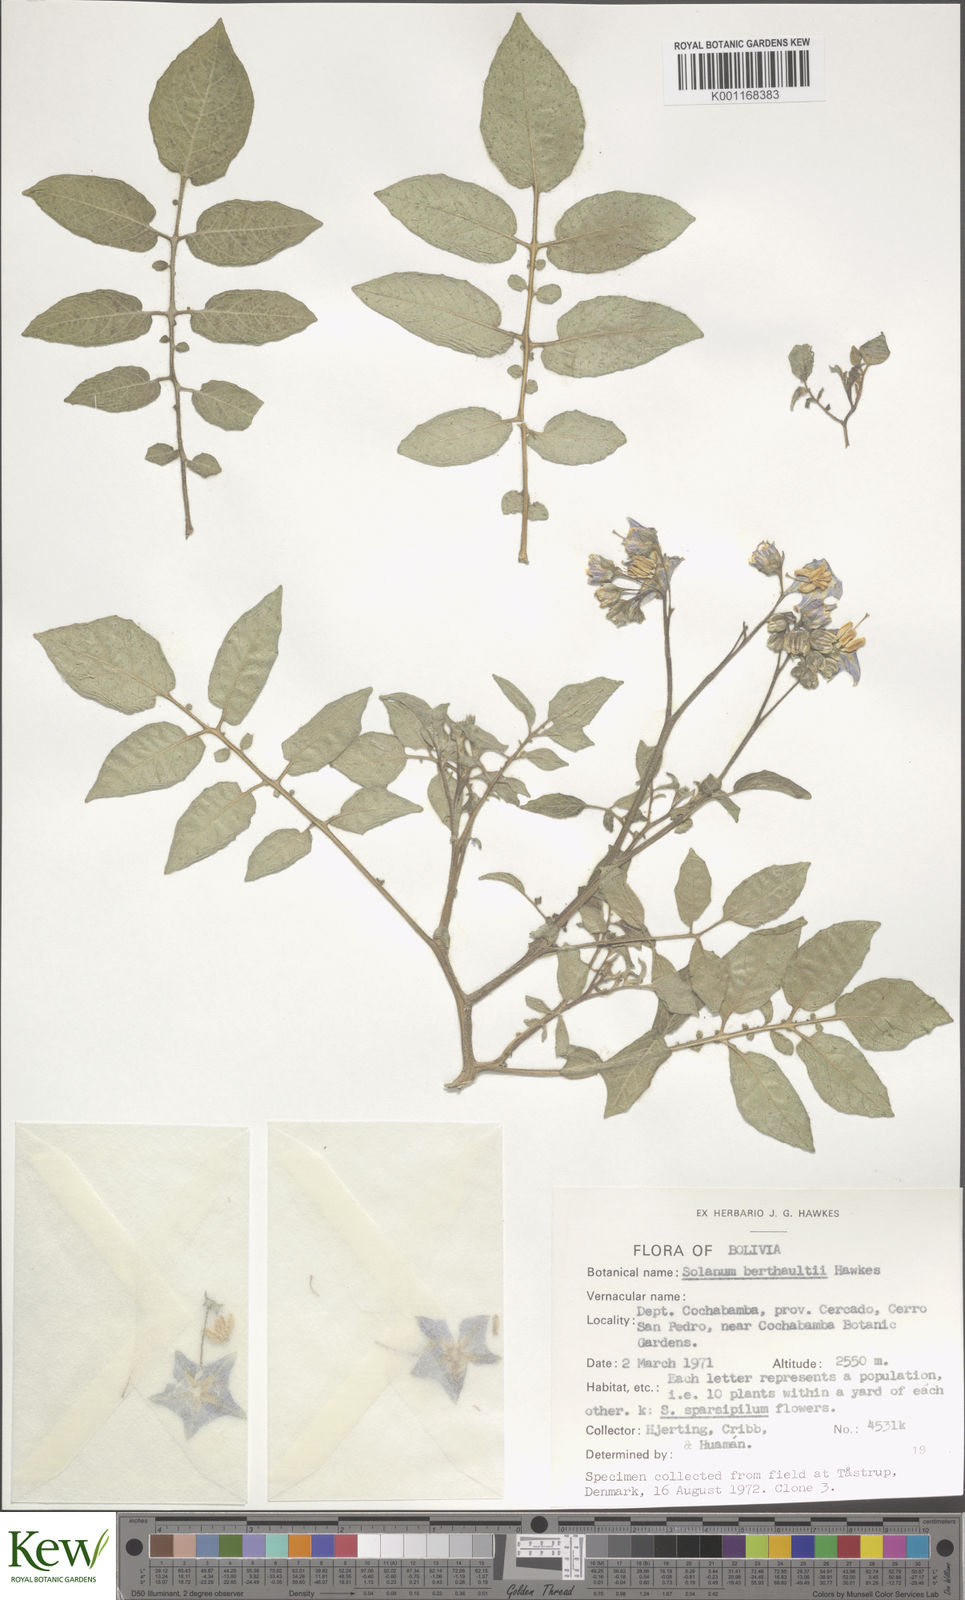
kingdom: Plantae
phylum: Tracheophyta
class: Magnoliopsida
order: Solanales
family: Solanaceae
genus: Solanum
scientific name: Solanum berthaultii
